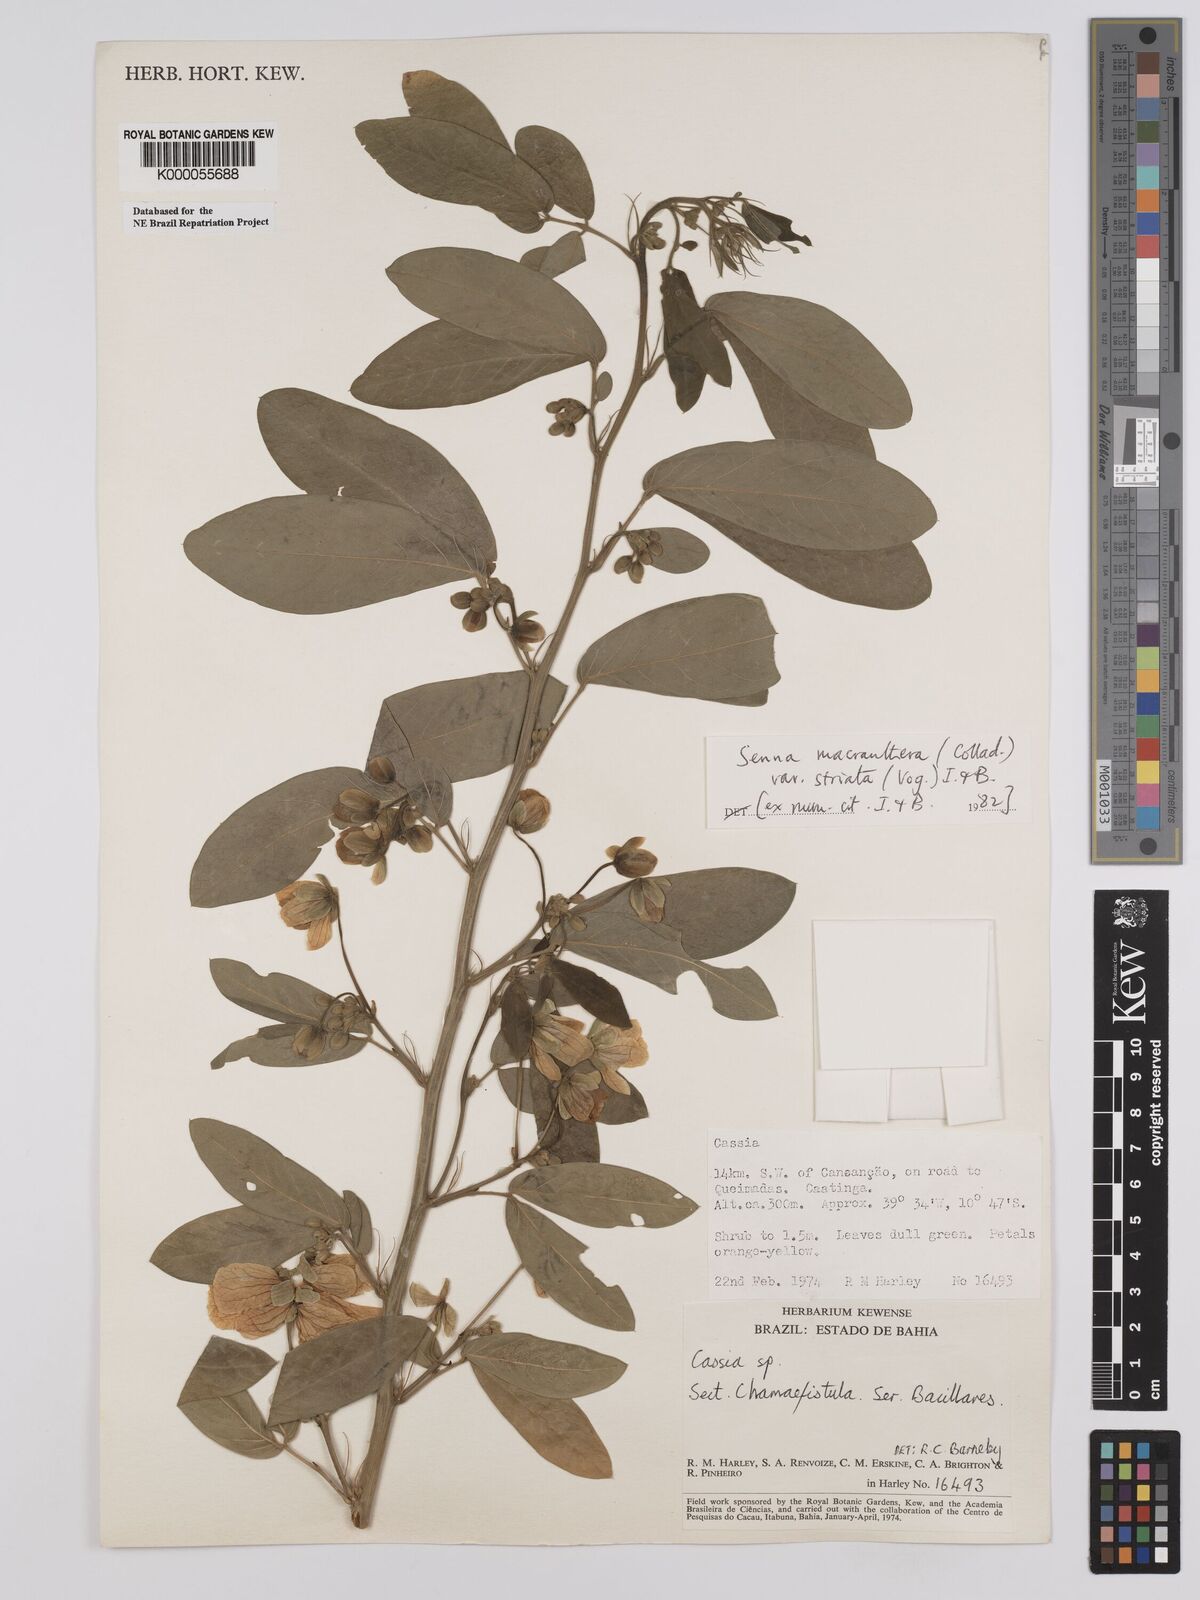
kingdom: Plantae
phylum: Tracheophyta
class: Magnoliopsida
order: Fabales
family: Fabaceae
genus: Senna
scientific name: Senna macranthera
